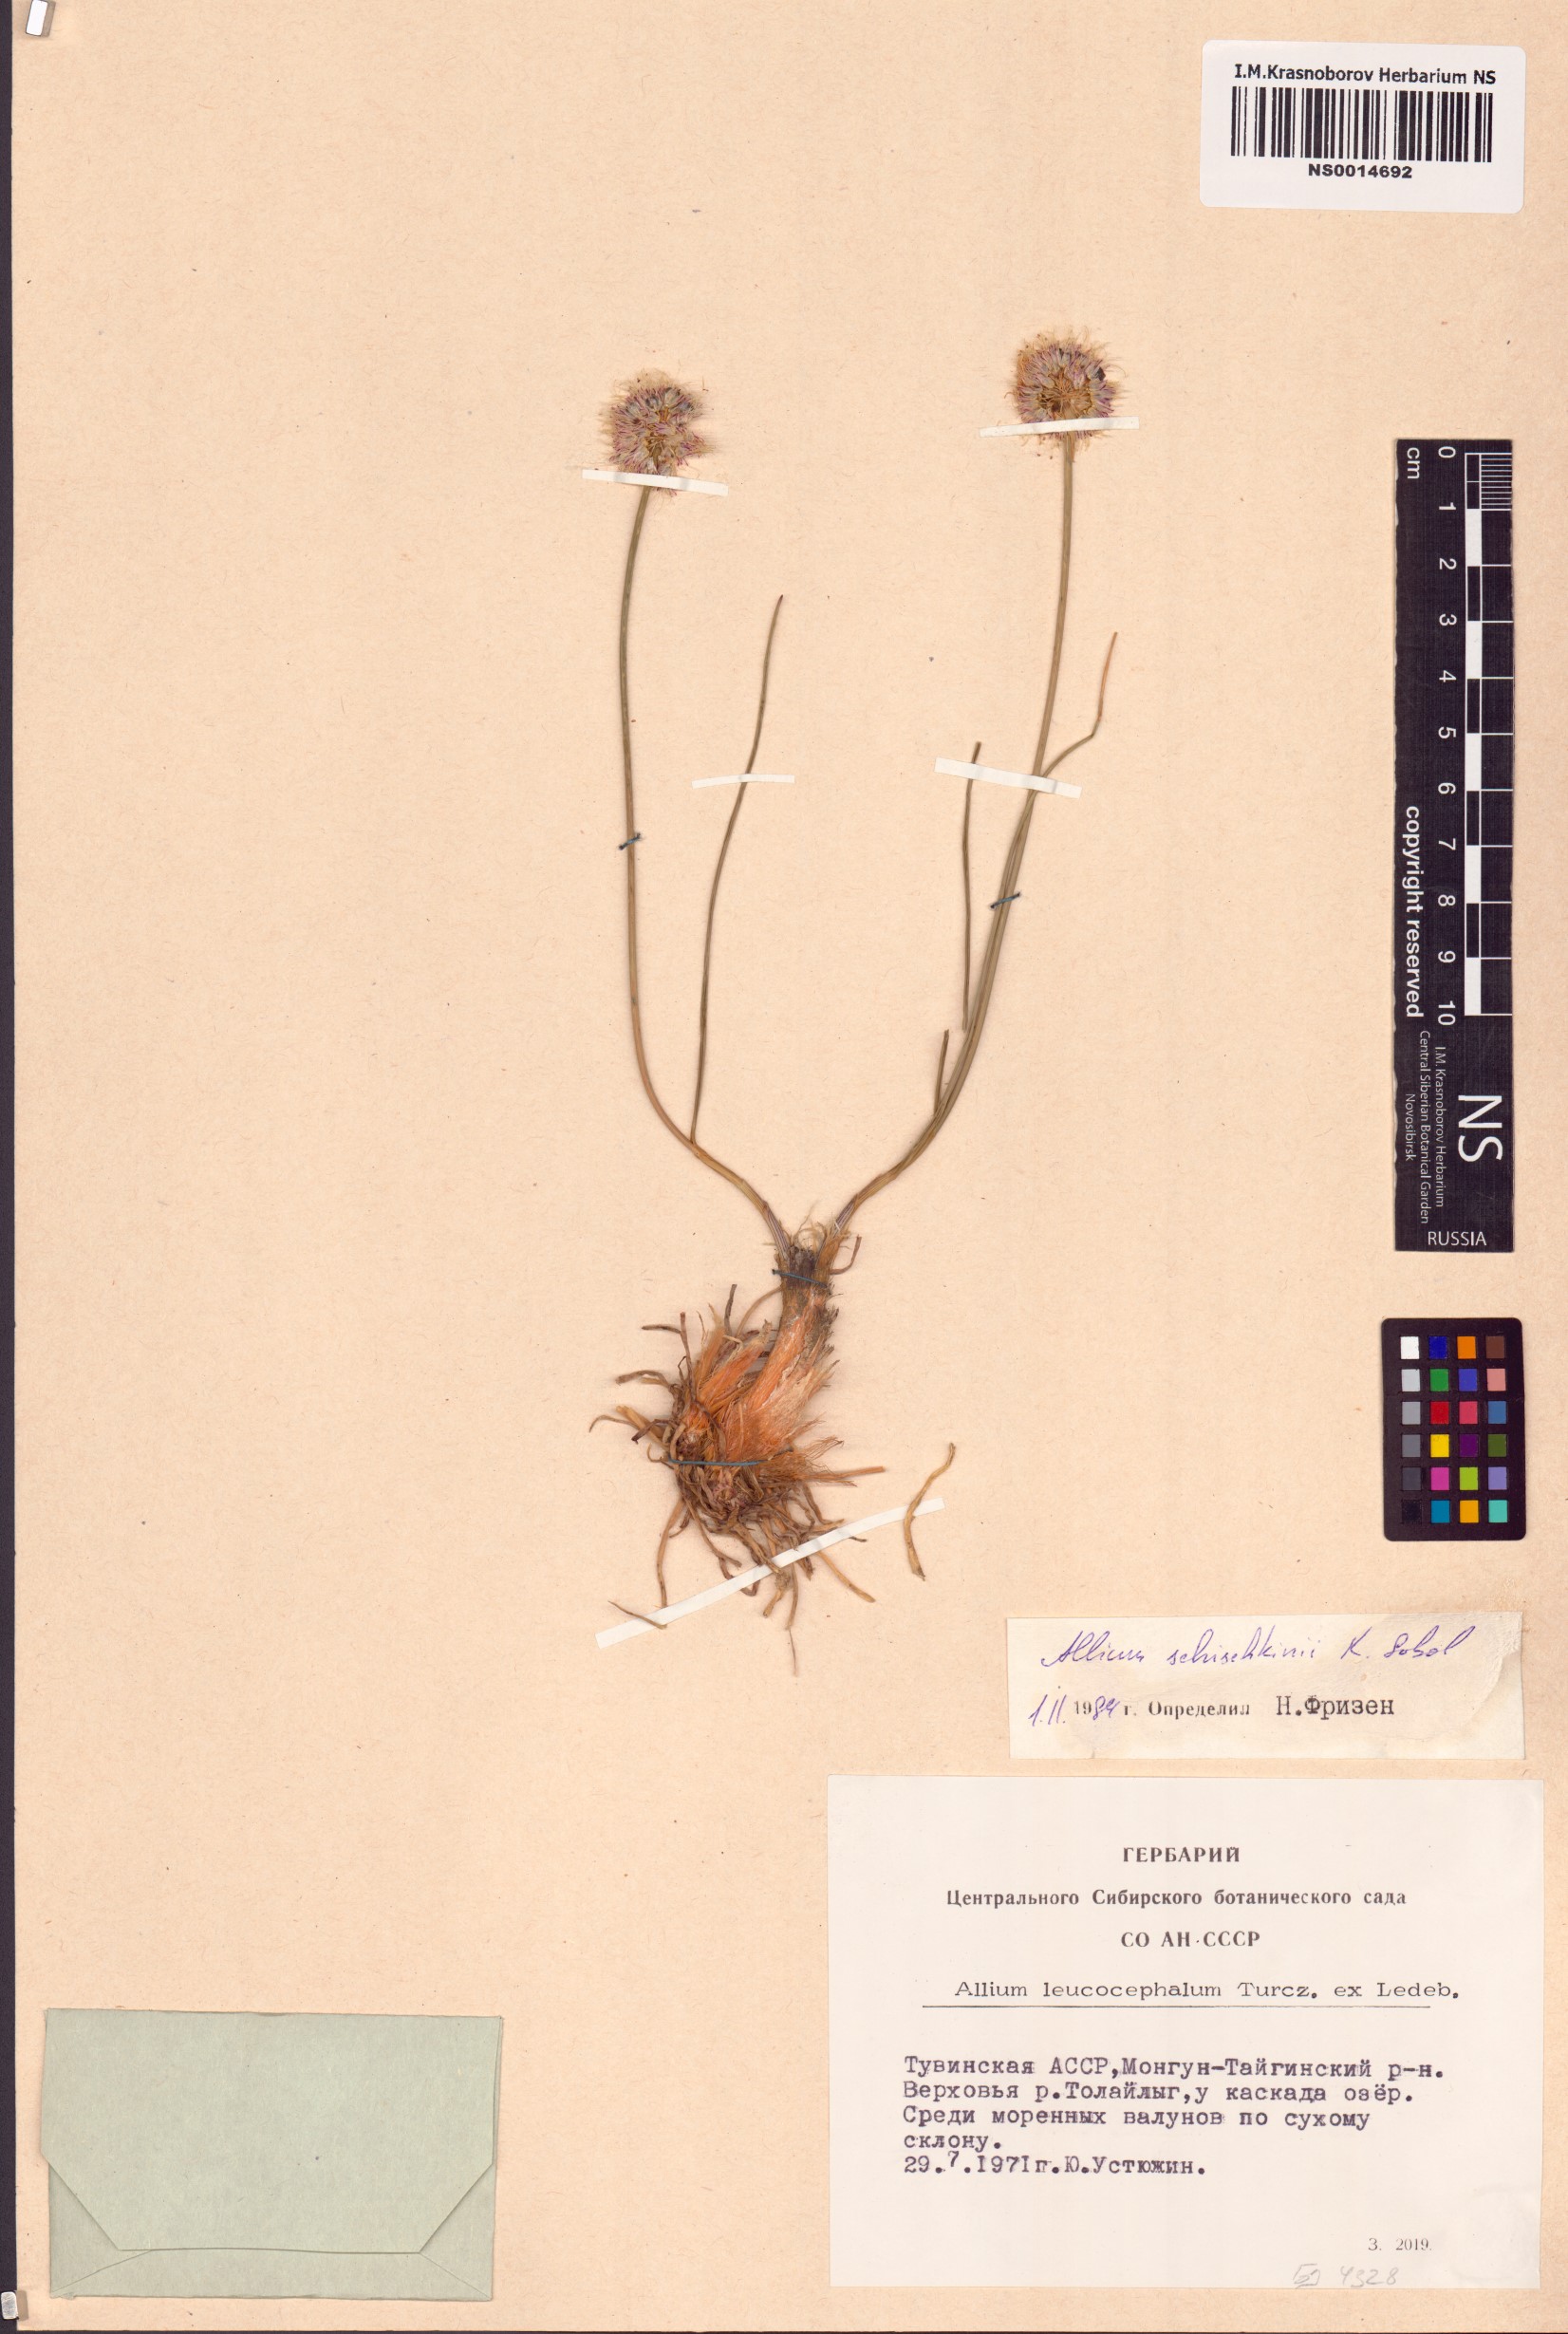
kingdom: Plantae
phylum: Tracheophyta
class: Liliopsida
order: Asparagales
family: Amaryllidaceae
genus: Allium
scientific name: Allium schischkinii
